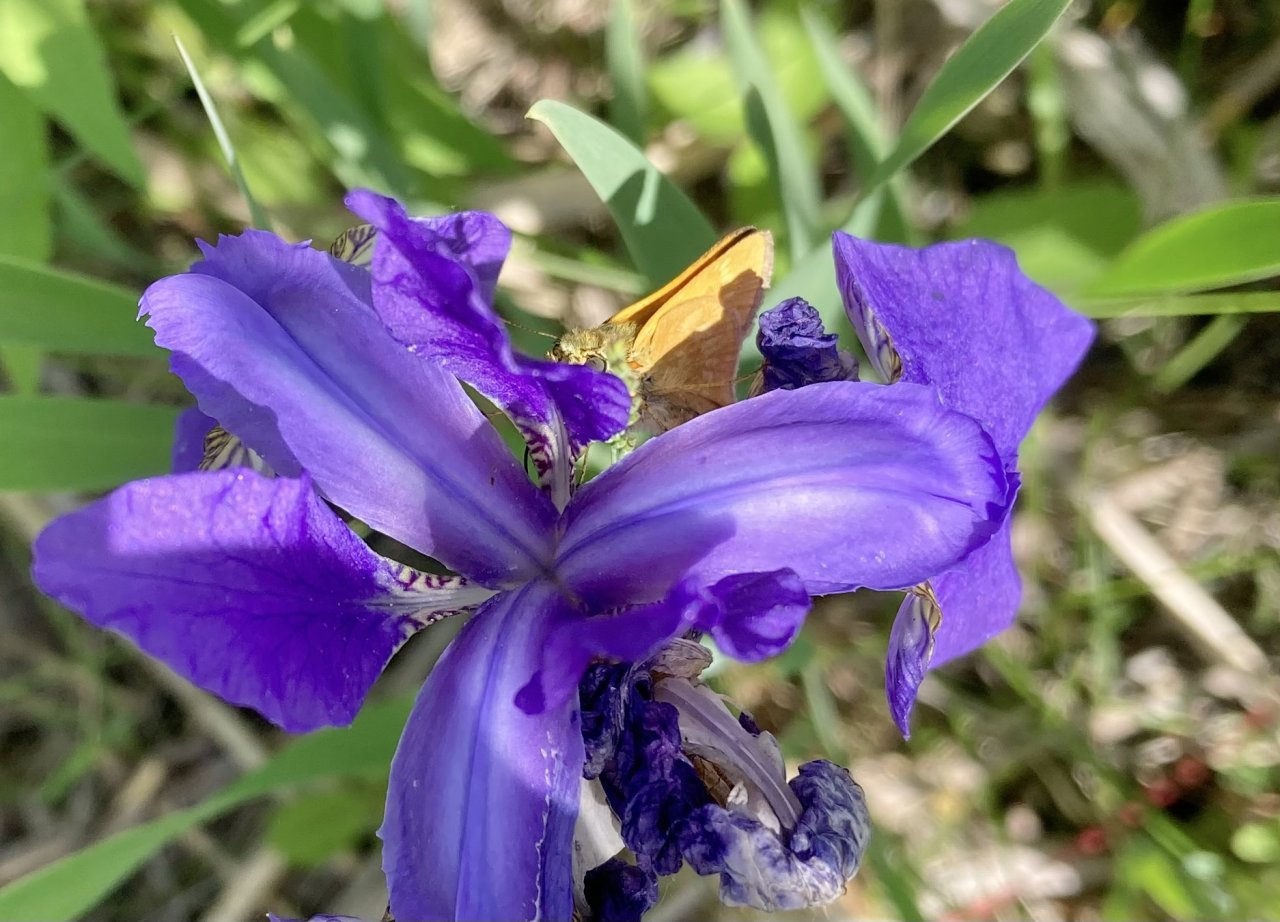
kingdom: Animalia
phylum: Arthropoda
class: Insecta
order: Lepidoptera
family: Hesperiidae
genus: Hesperia
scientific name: Hesperia sassacus
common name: Sassacus Skipper
